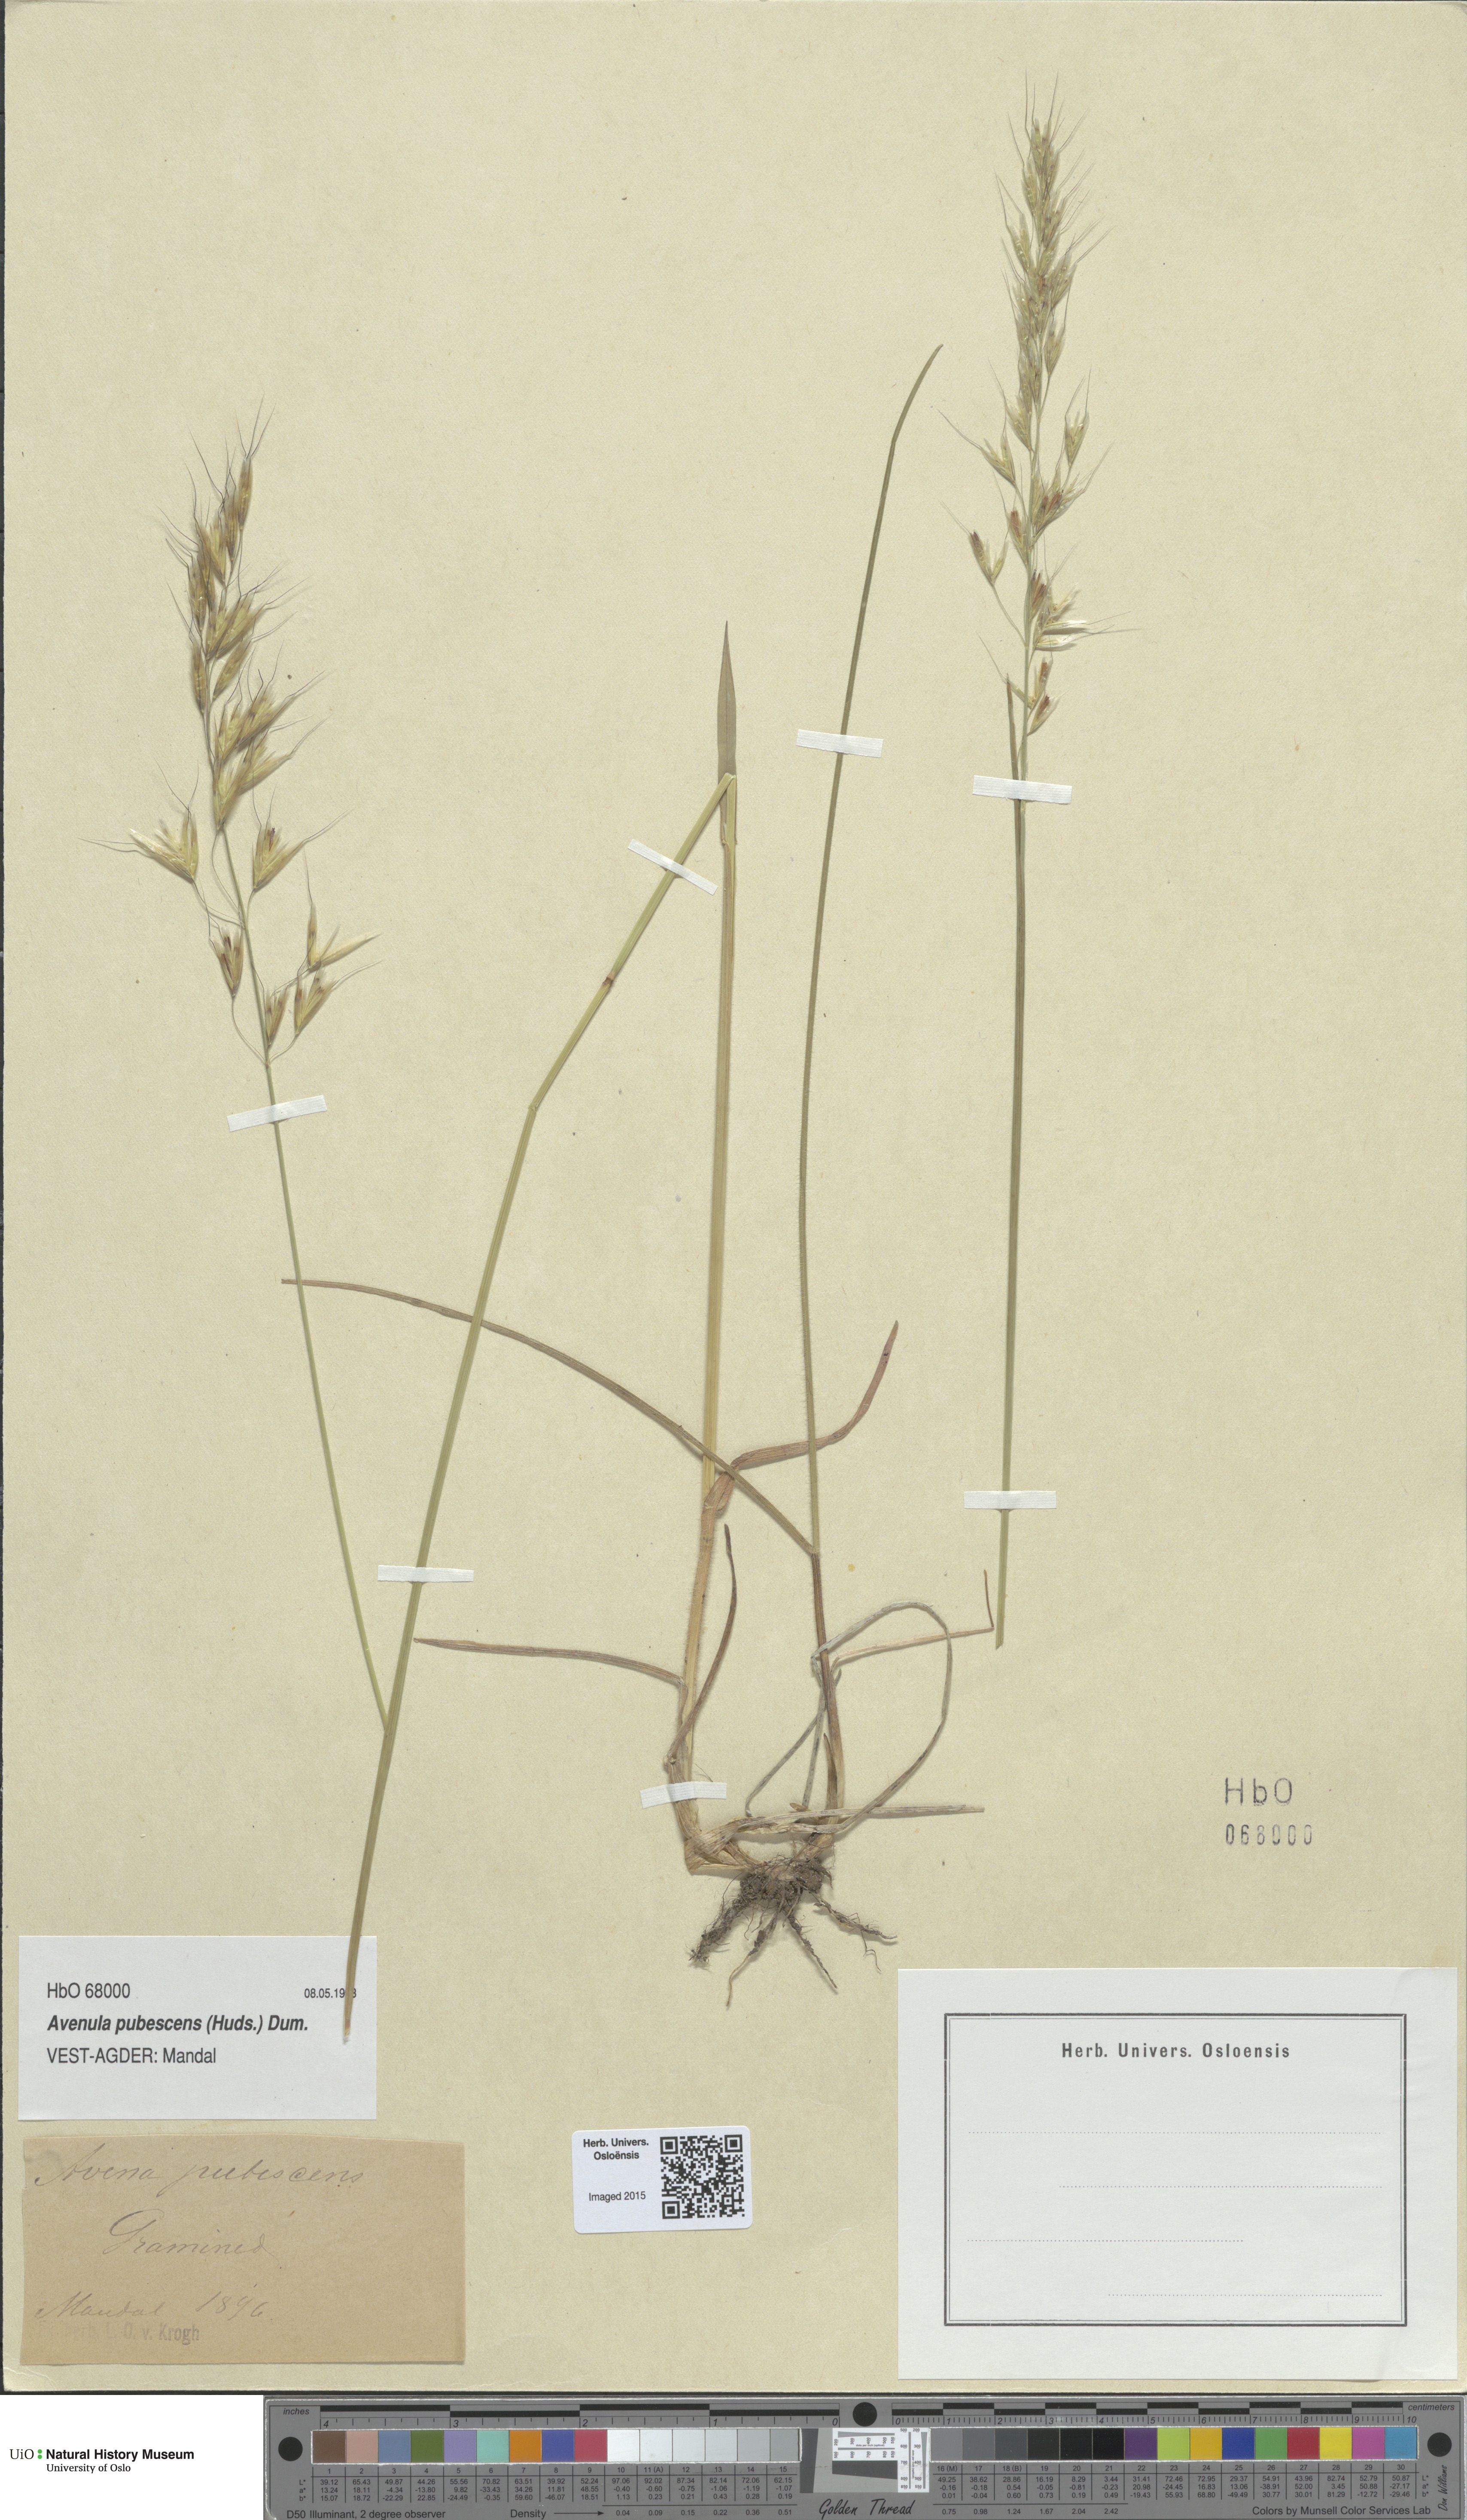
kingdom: Plantae
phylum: Tracheophyta
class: Liliopsida
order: Poales
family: Poaceae
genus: Avenula
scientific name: Avenula pubescens
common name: Downy alpine oatgrass
